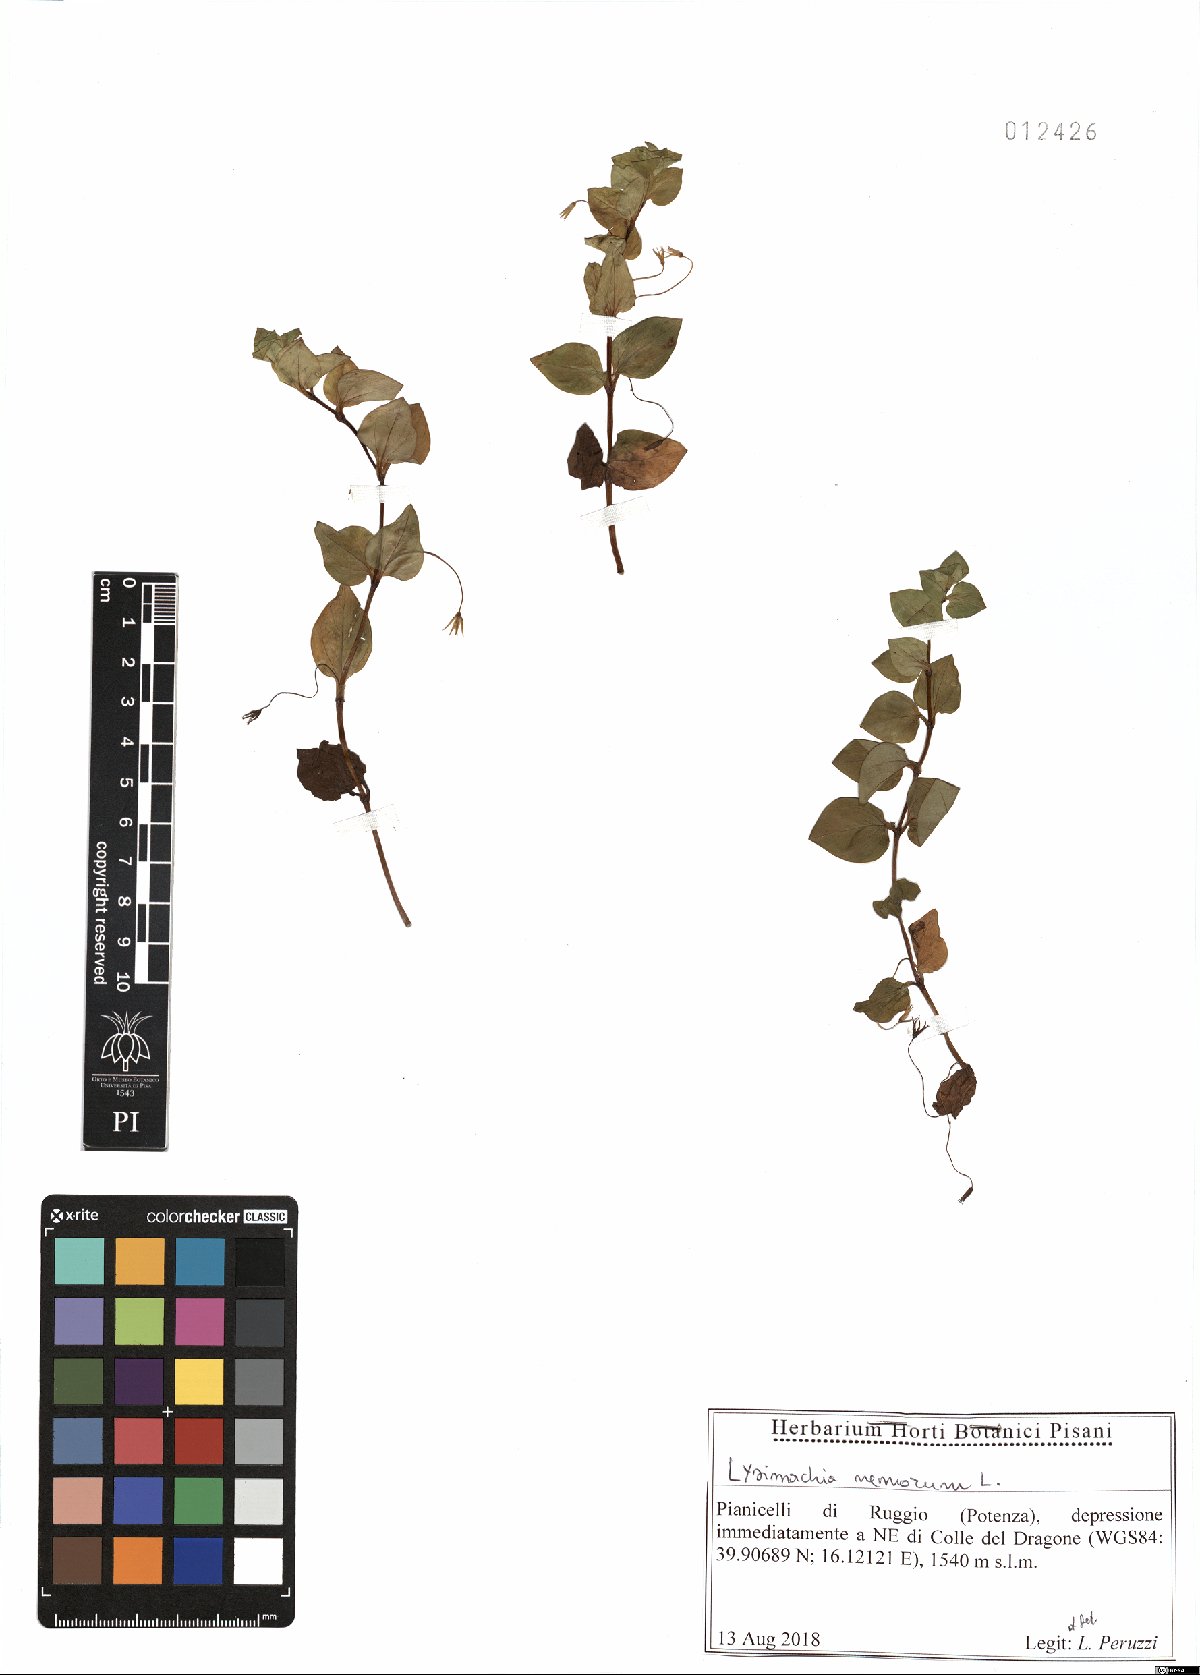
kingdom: Plantae
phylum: Tracheophyta
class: Magnoliopsida
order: Ericales
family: Primulaceae
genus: Lysimachia
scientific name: Lysimachia nemorum
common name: Yellow pimpernel
